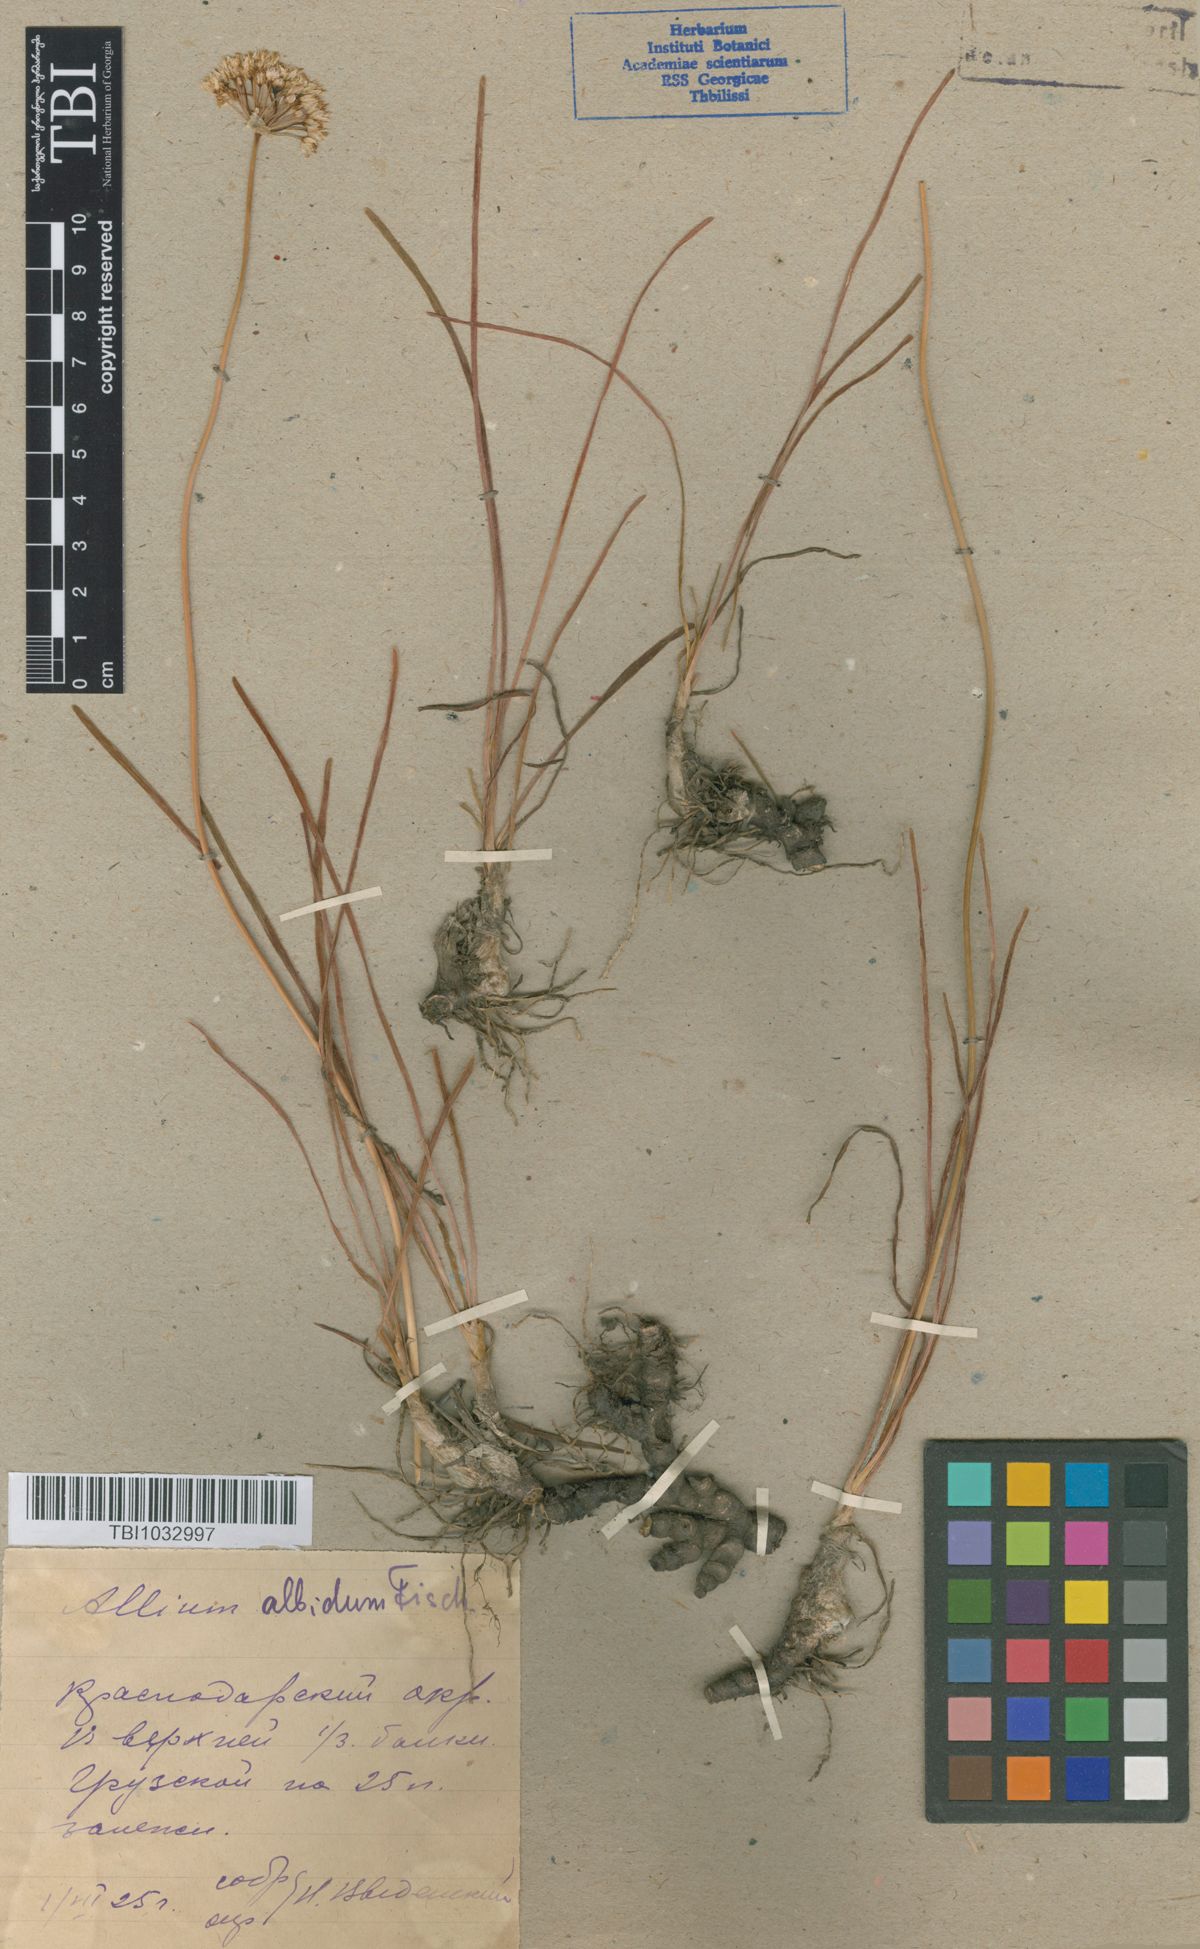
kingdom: Plantae
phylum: Tracheophyta
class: Liliopsida
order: Asparagales
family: Amaryllidaceae
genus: Allium
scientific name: Allium denudatum
